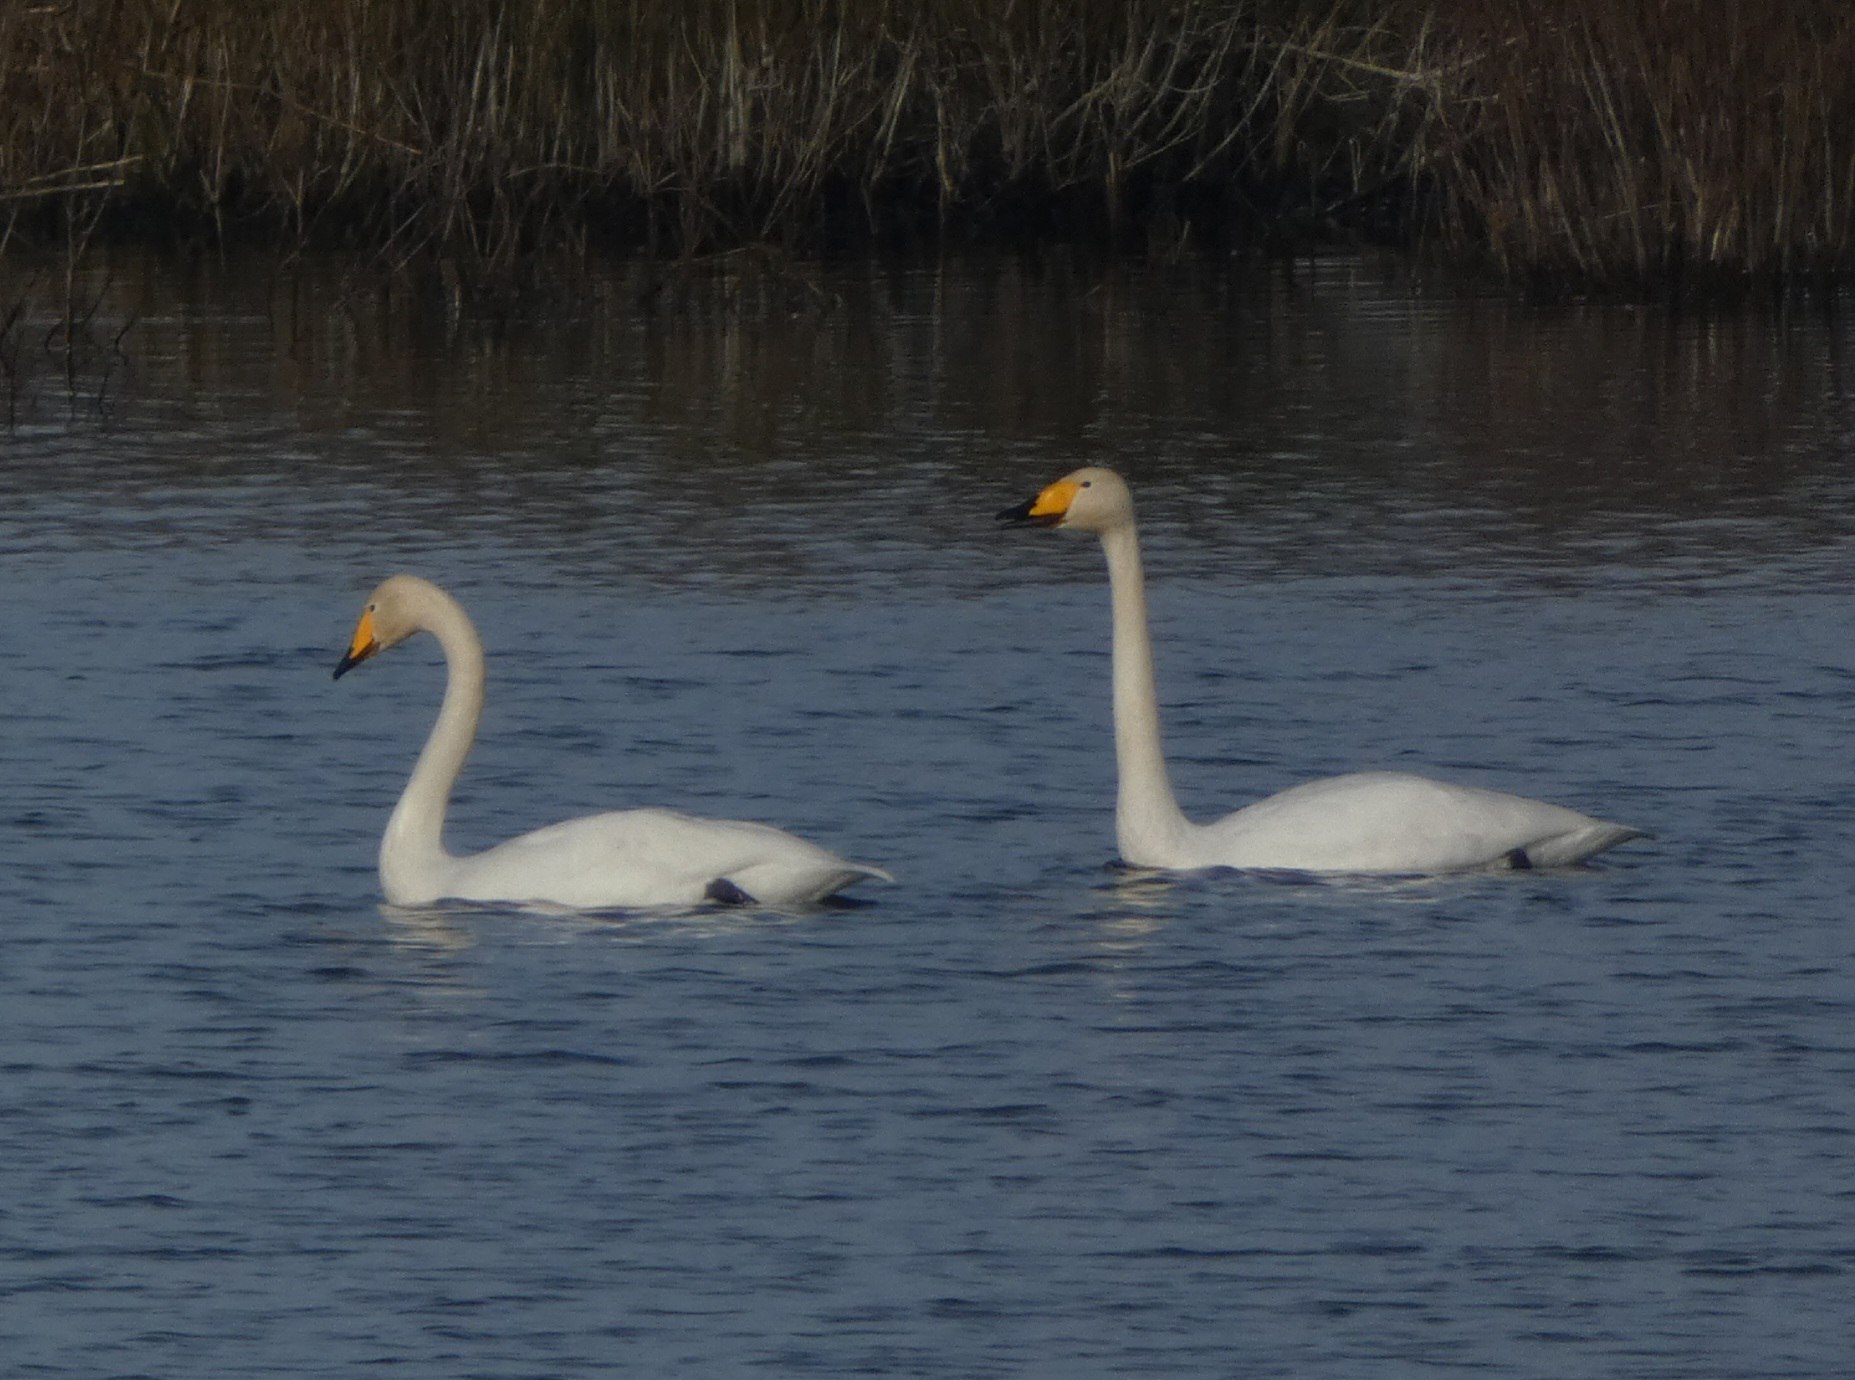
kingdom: Animalia
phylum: Chordata
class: Aves
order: Anseriformes
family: Anatidae
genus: Cygnus
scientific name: Cygnus cygnus
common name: Sangsvane
